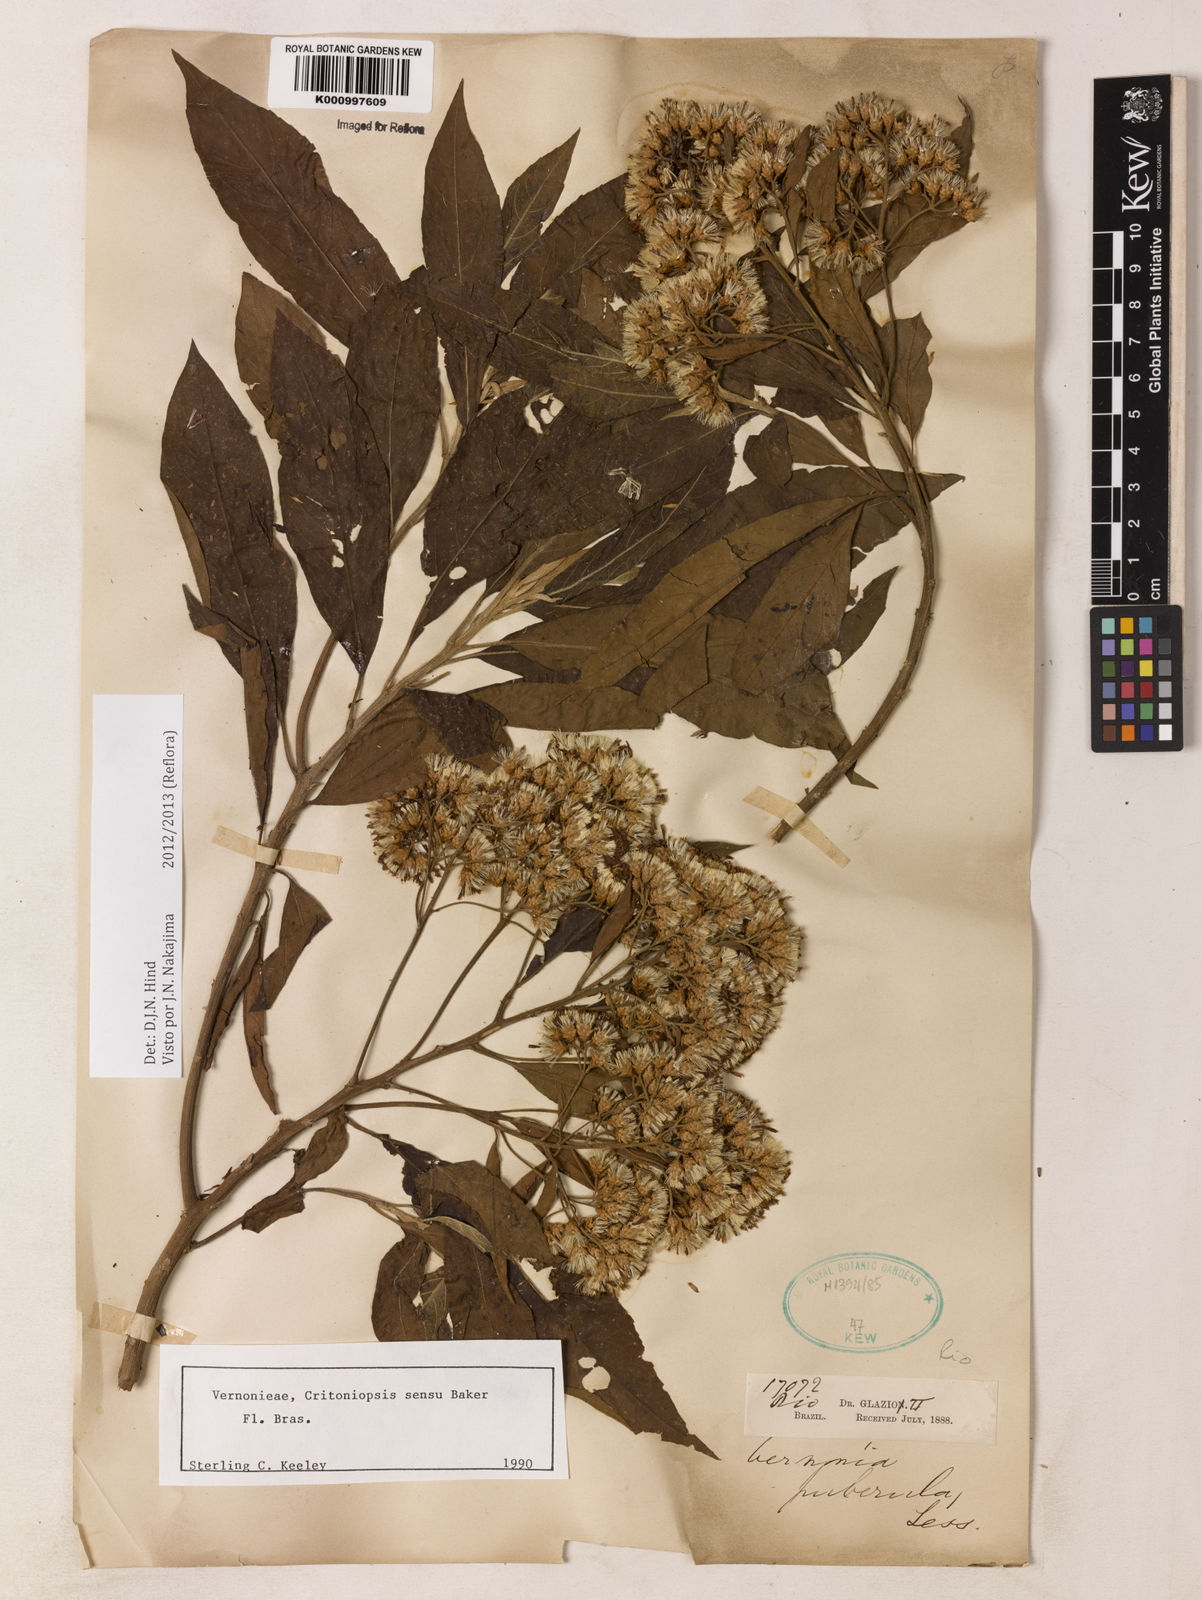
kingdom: Plantae
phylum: Tracheophyta
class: Magnoliopsida
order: Asterales
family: Asteraceae
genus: Vernonanthura
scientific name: Vernonanthura puberula
